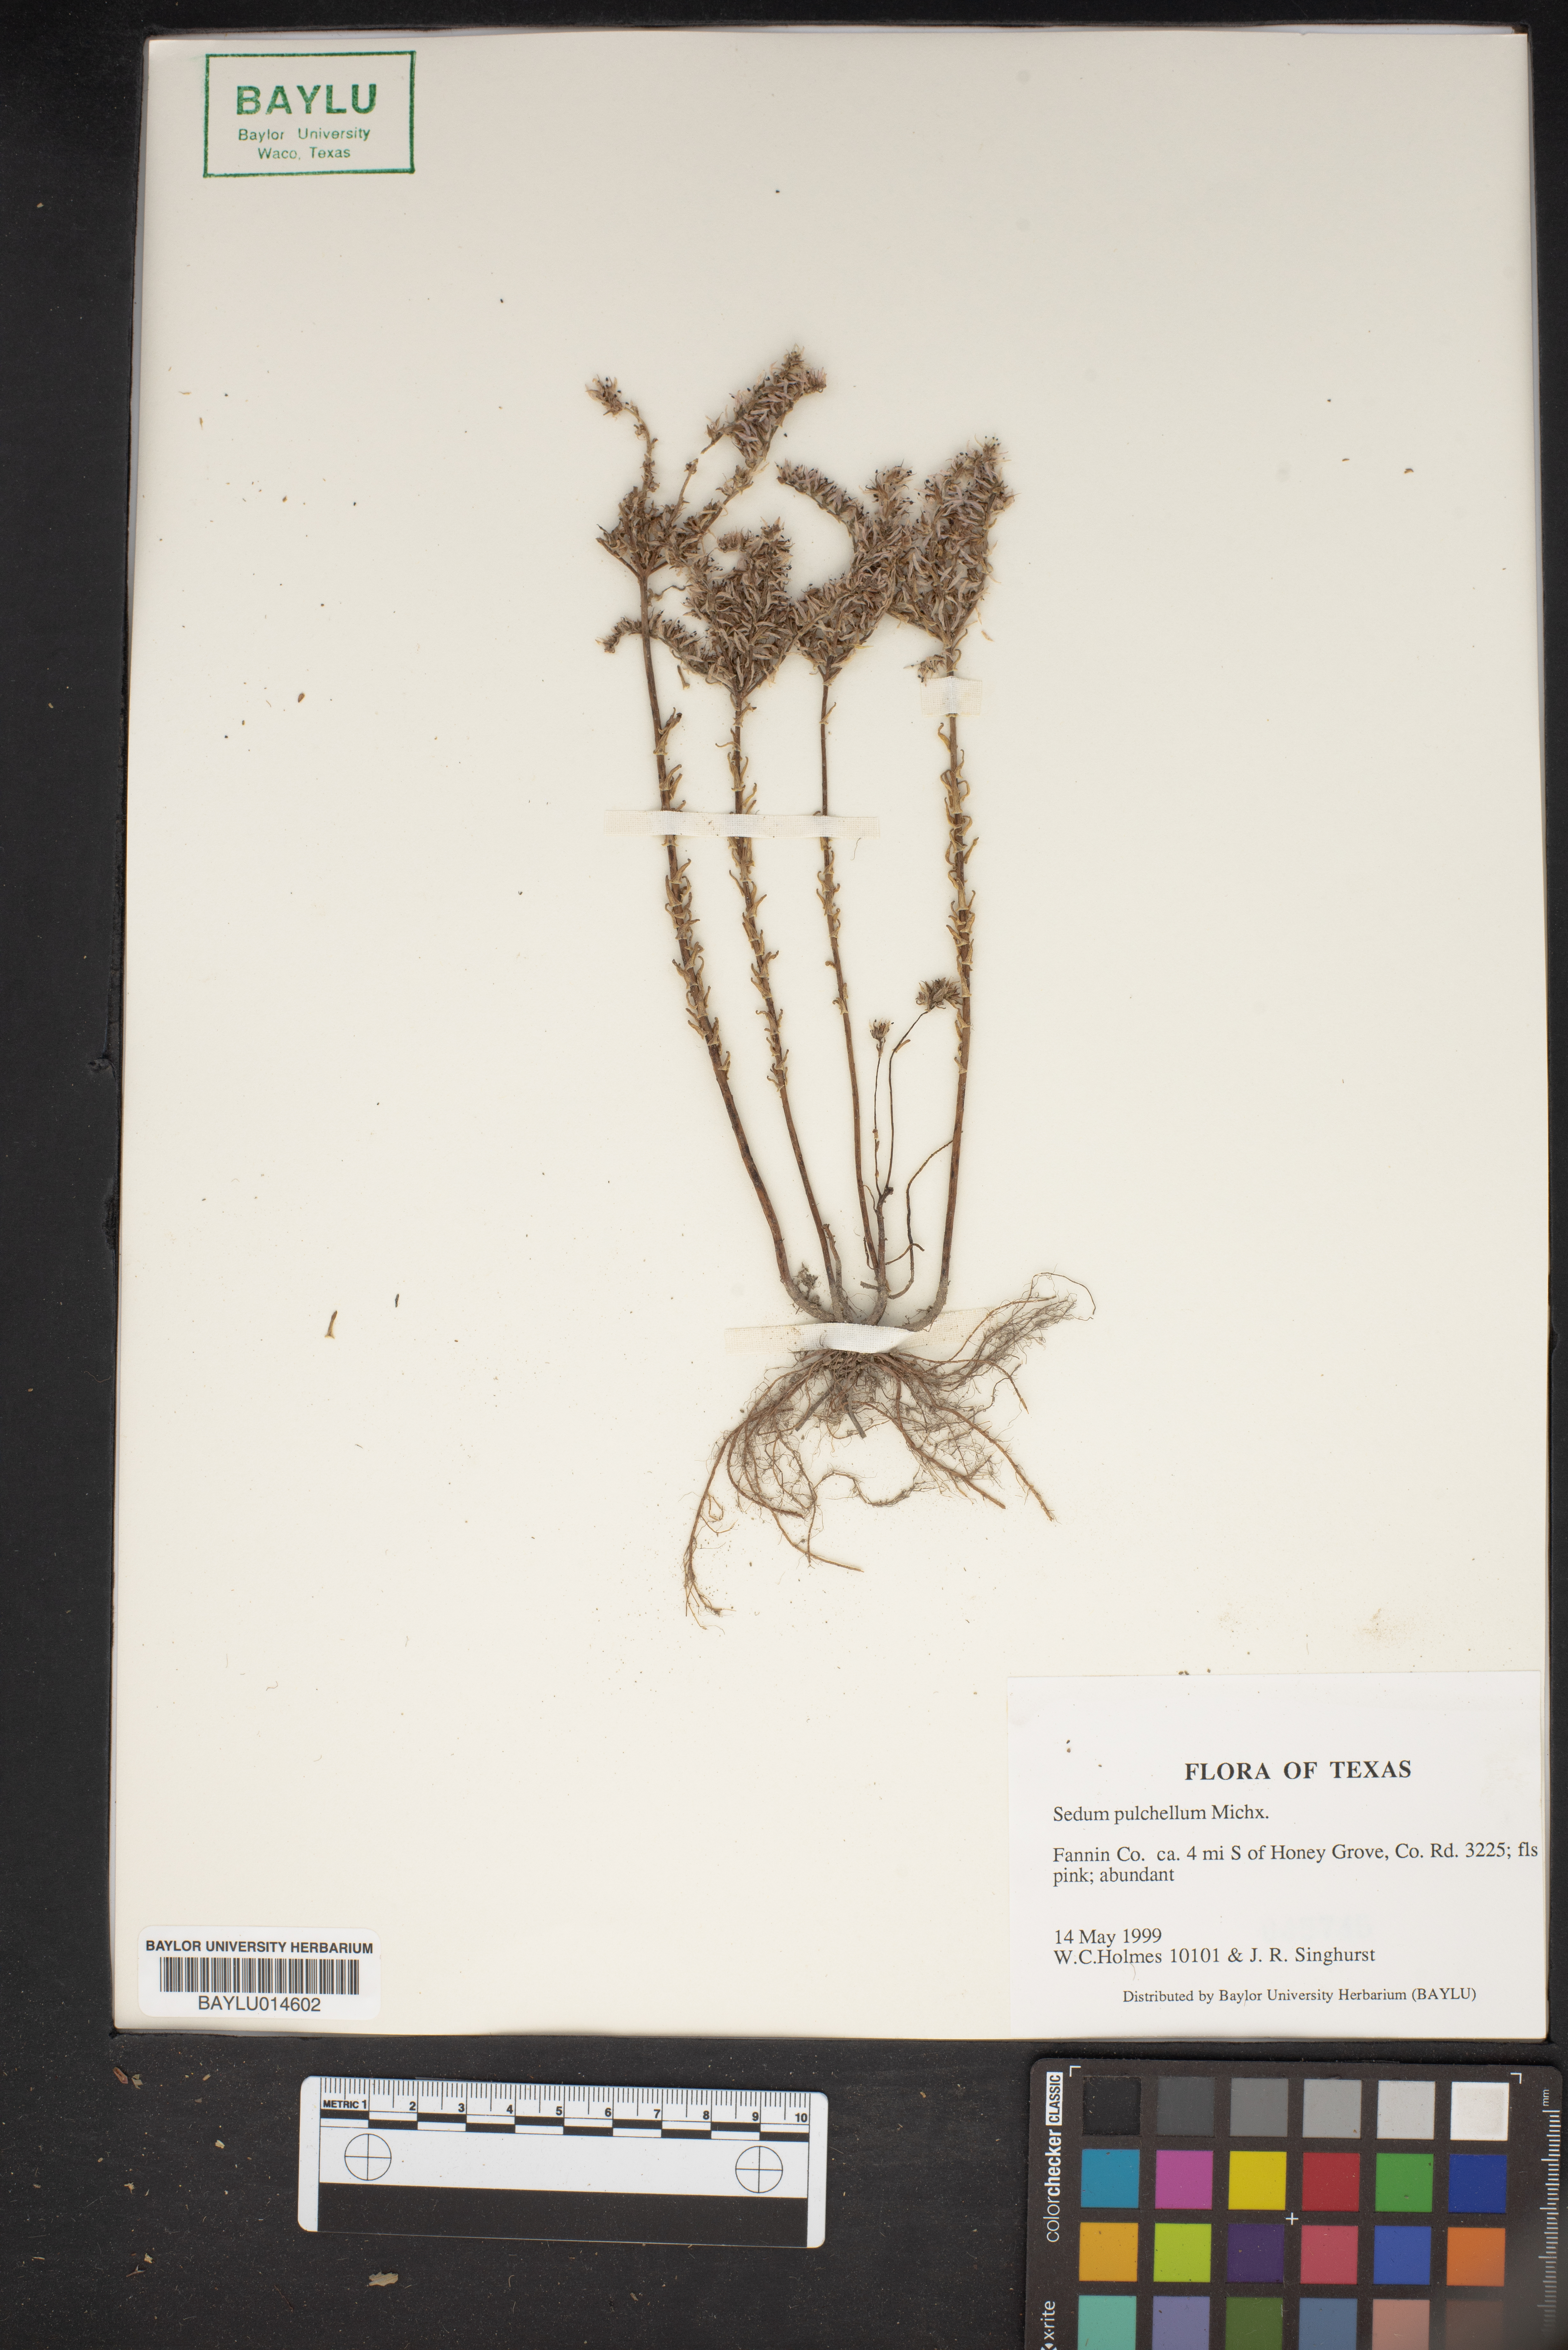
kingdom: Plantae
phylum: Tracheophyta
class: Magnoliopsida
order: Saxifragales
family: Crassulaceae
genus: Sedum
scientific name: Sedum pulchellum
